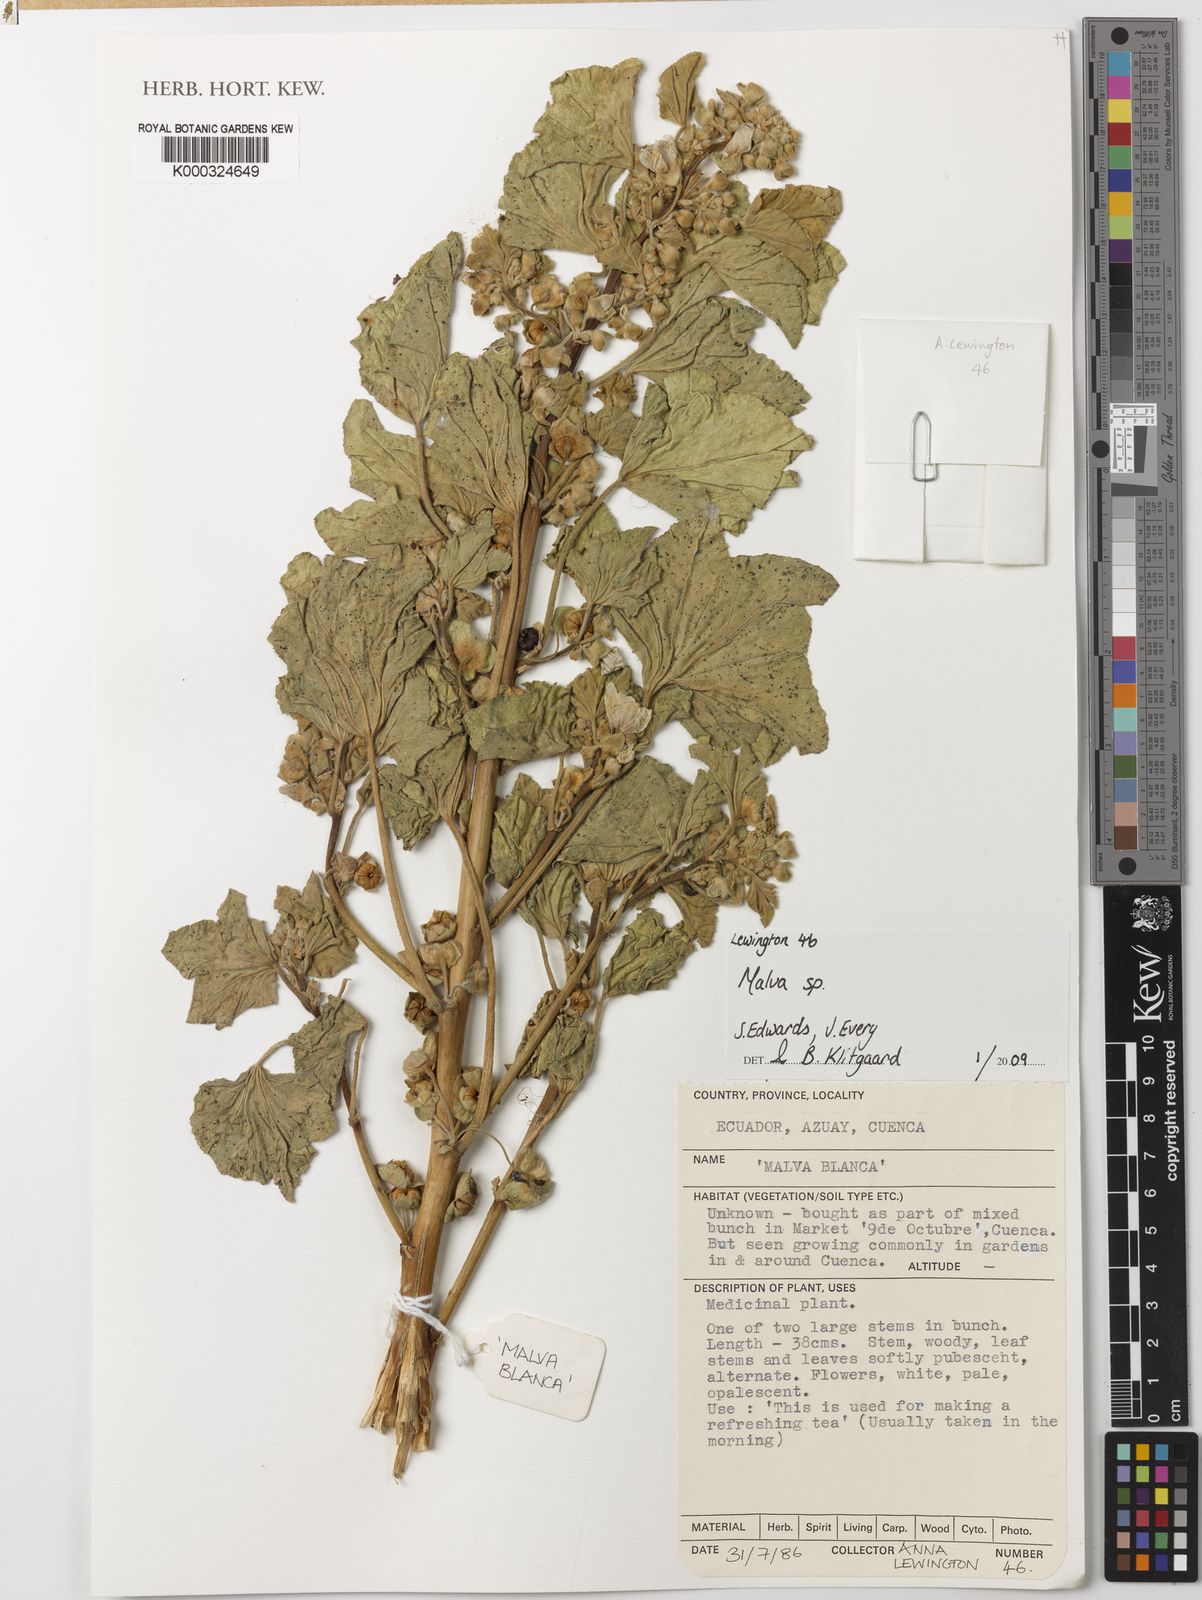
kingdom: Plantae
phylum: Tracheophyta
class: Magnoliopsida
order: Malvales
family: Malvaceae
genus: Malva
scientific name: Malva
